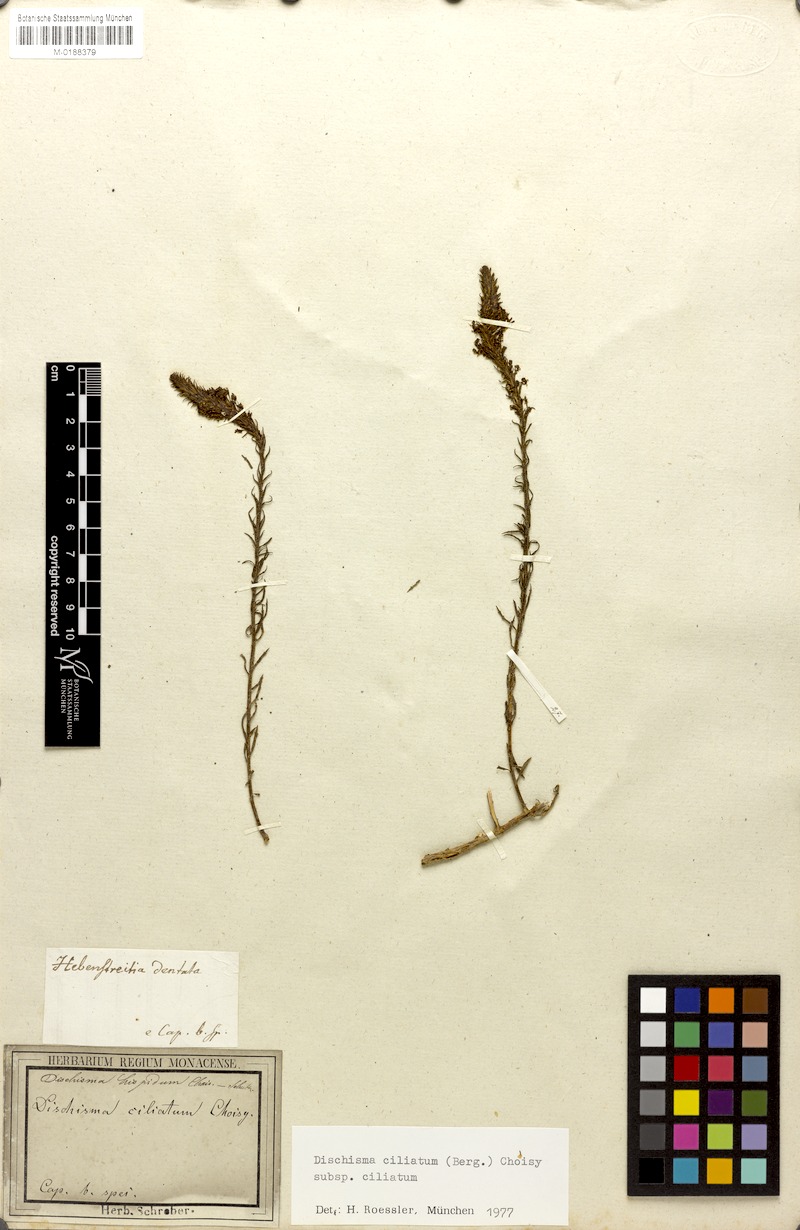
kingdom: Plantae
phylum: Tracheophyta
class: Magnoliopsida
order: Lamiales
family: Scrophulariaceae
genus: Dischisma
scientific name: Dischisma ciliatum
